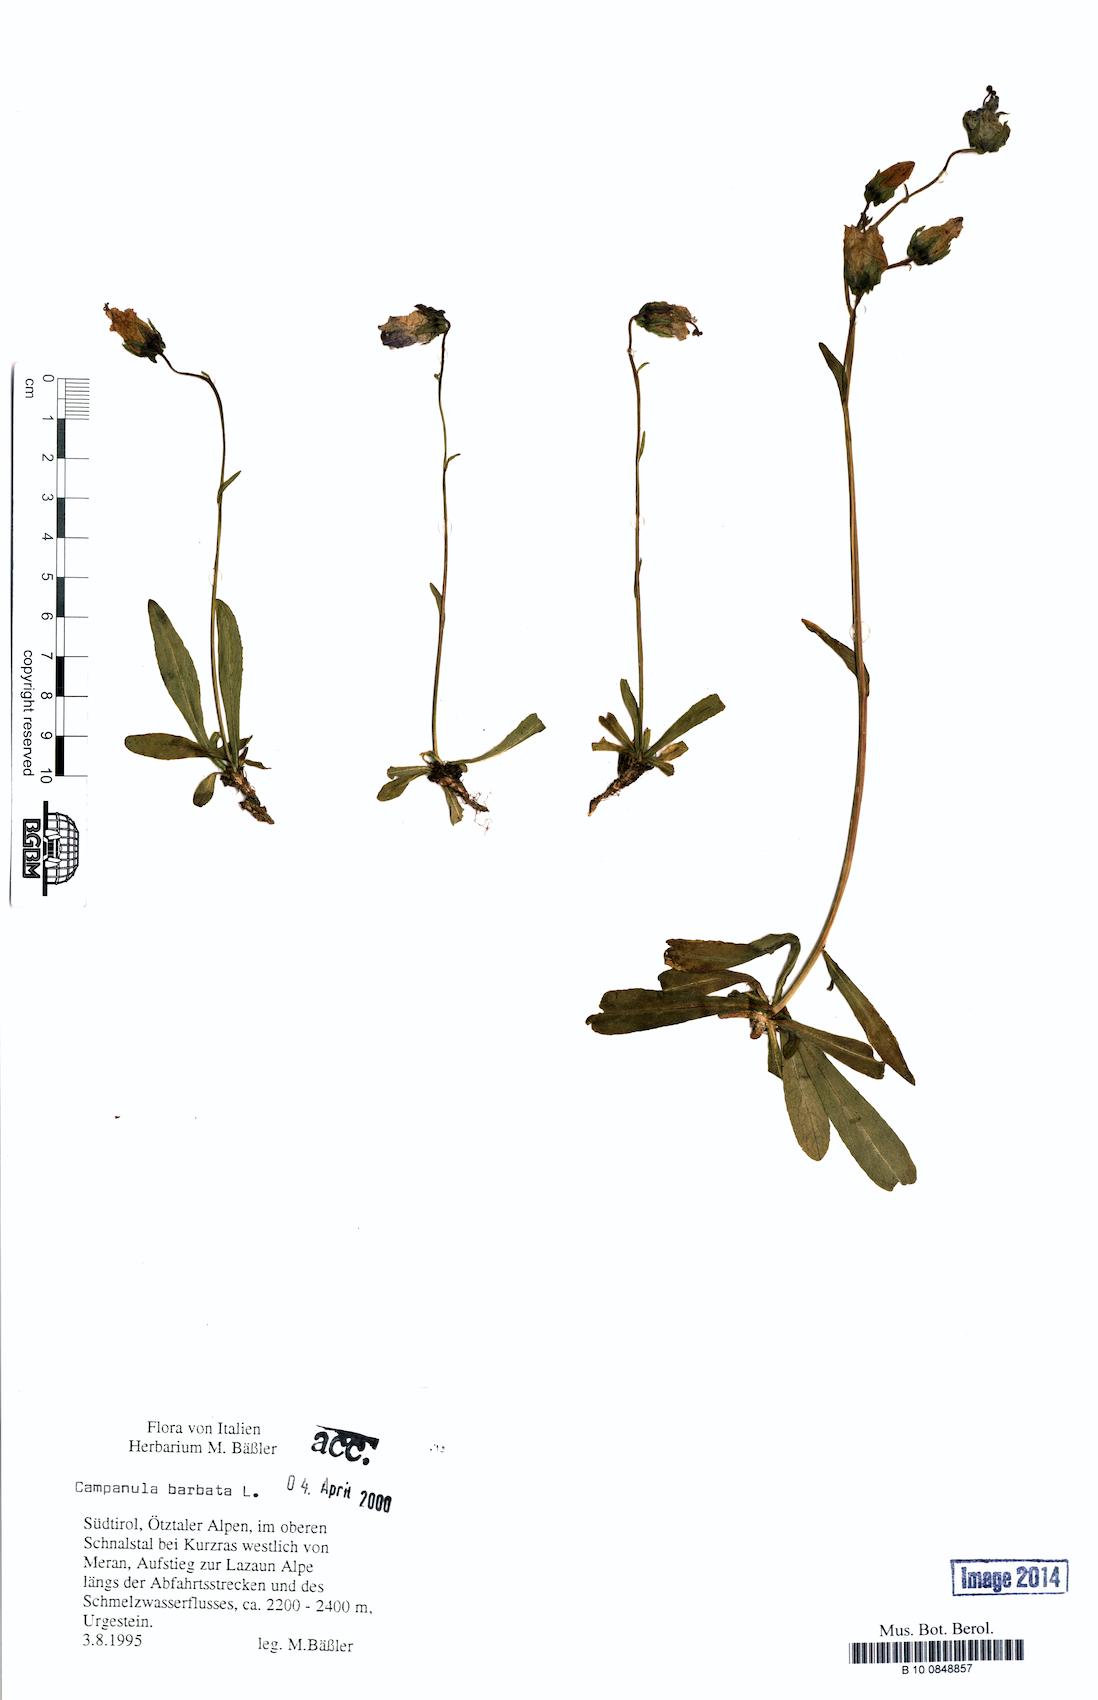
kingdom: Plantae
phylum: Tracheophyta
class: Magnoliopsida
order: Asterales
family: Campanulaceae
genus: Campanula
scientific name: Campanula barbata
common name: Bearded bellflower
